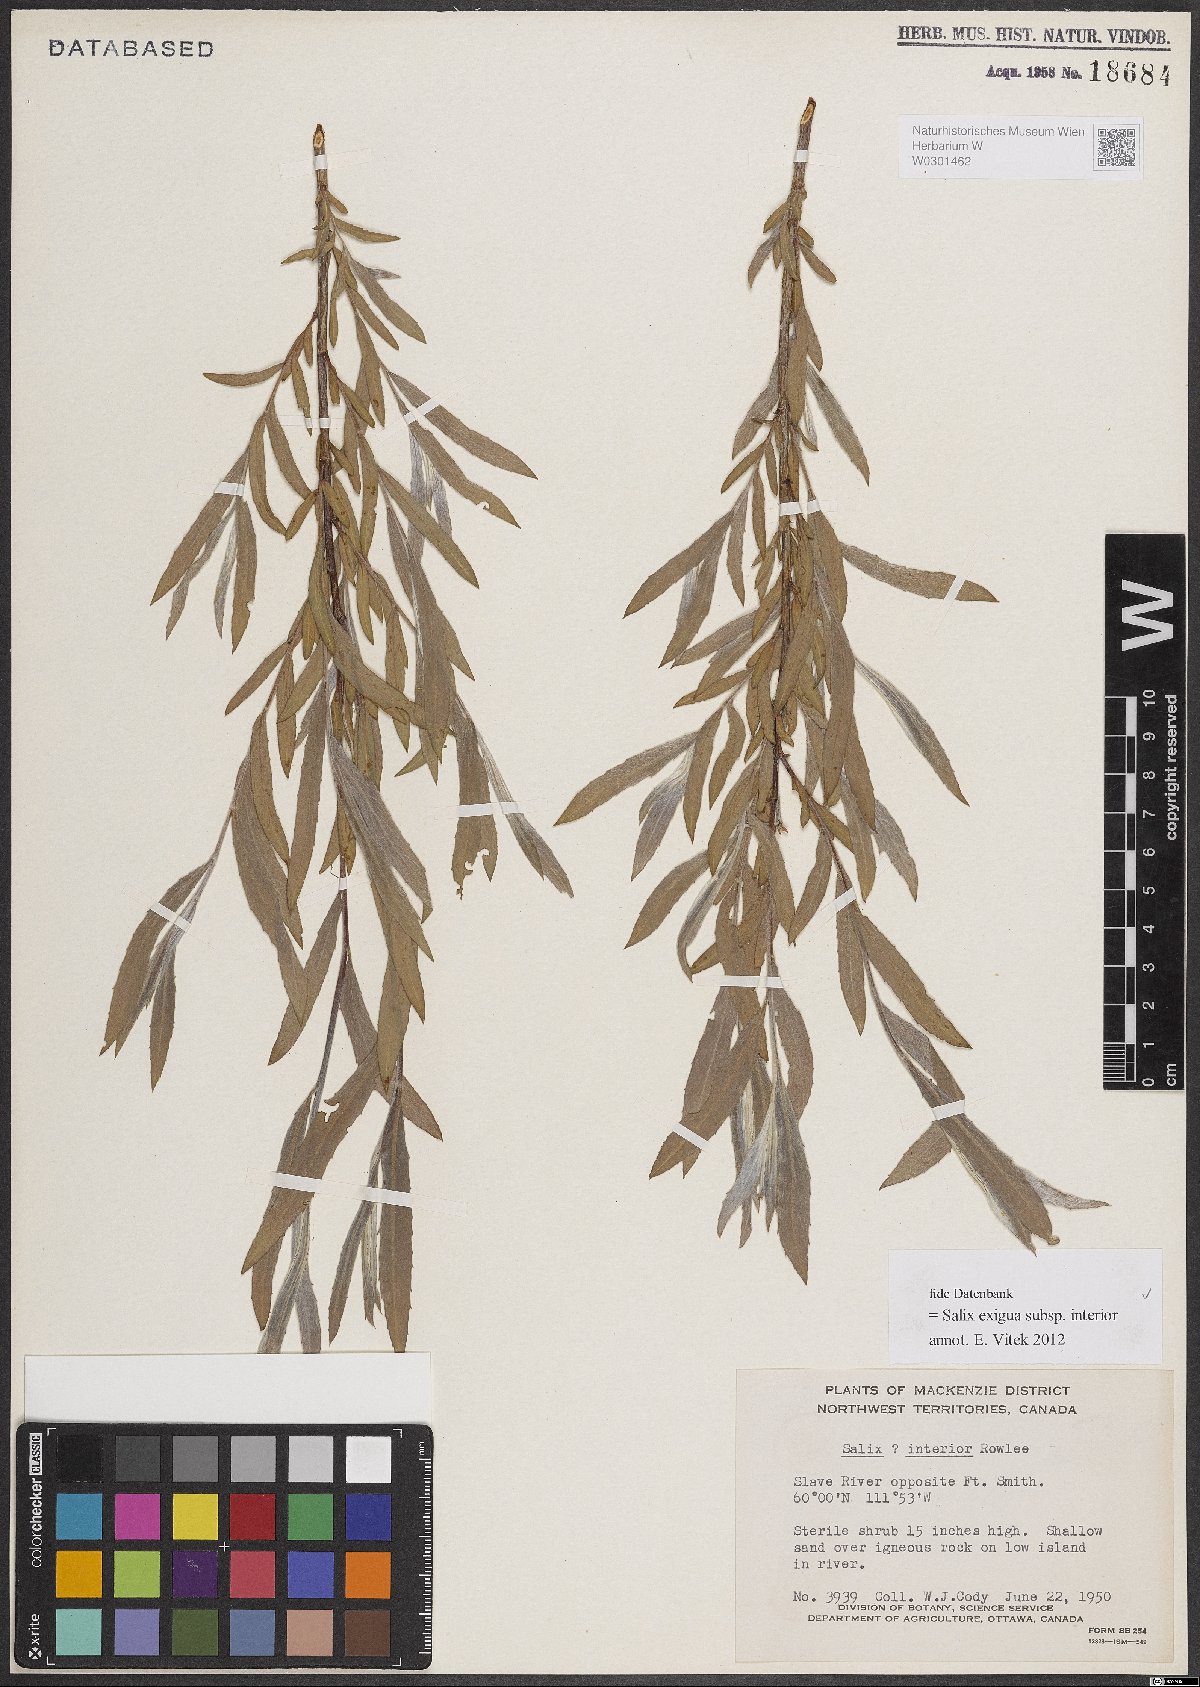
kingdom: Plantae
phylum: Tracheophyta
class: Magnoliopsida
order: Malpighiales
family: Salicaceae
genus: Salix
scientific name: Salix interior
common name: Sandbar willow
